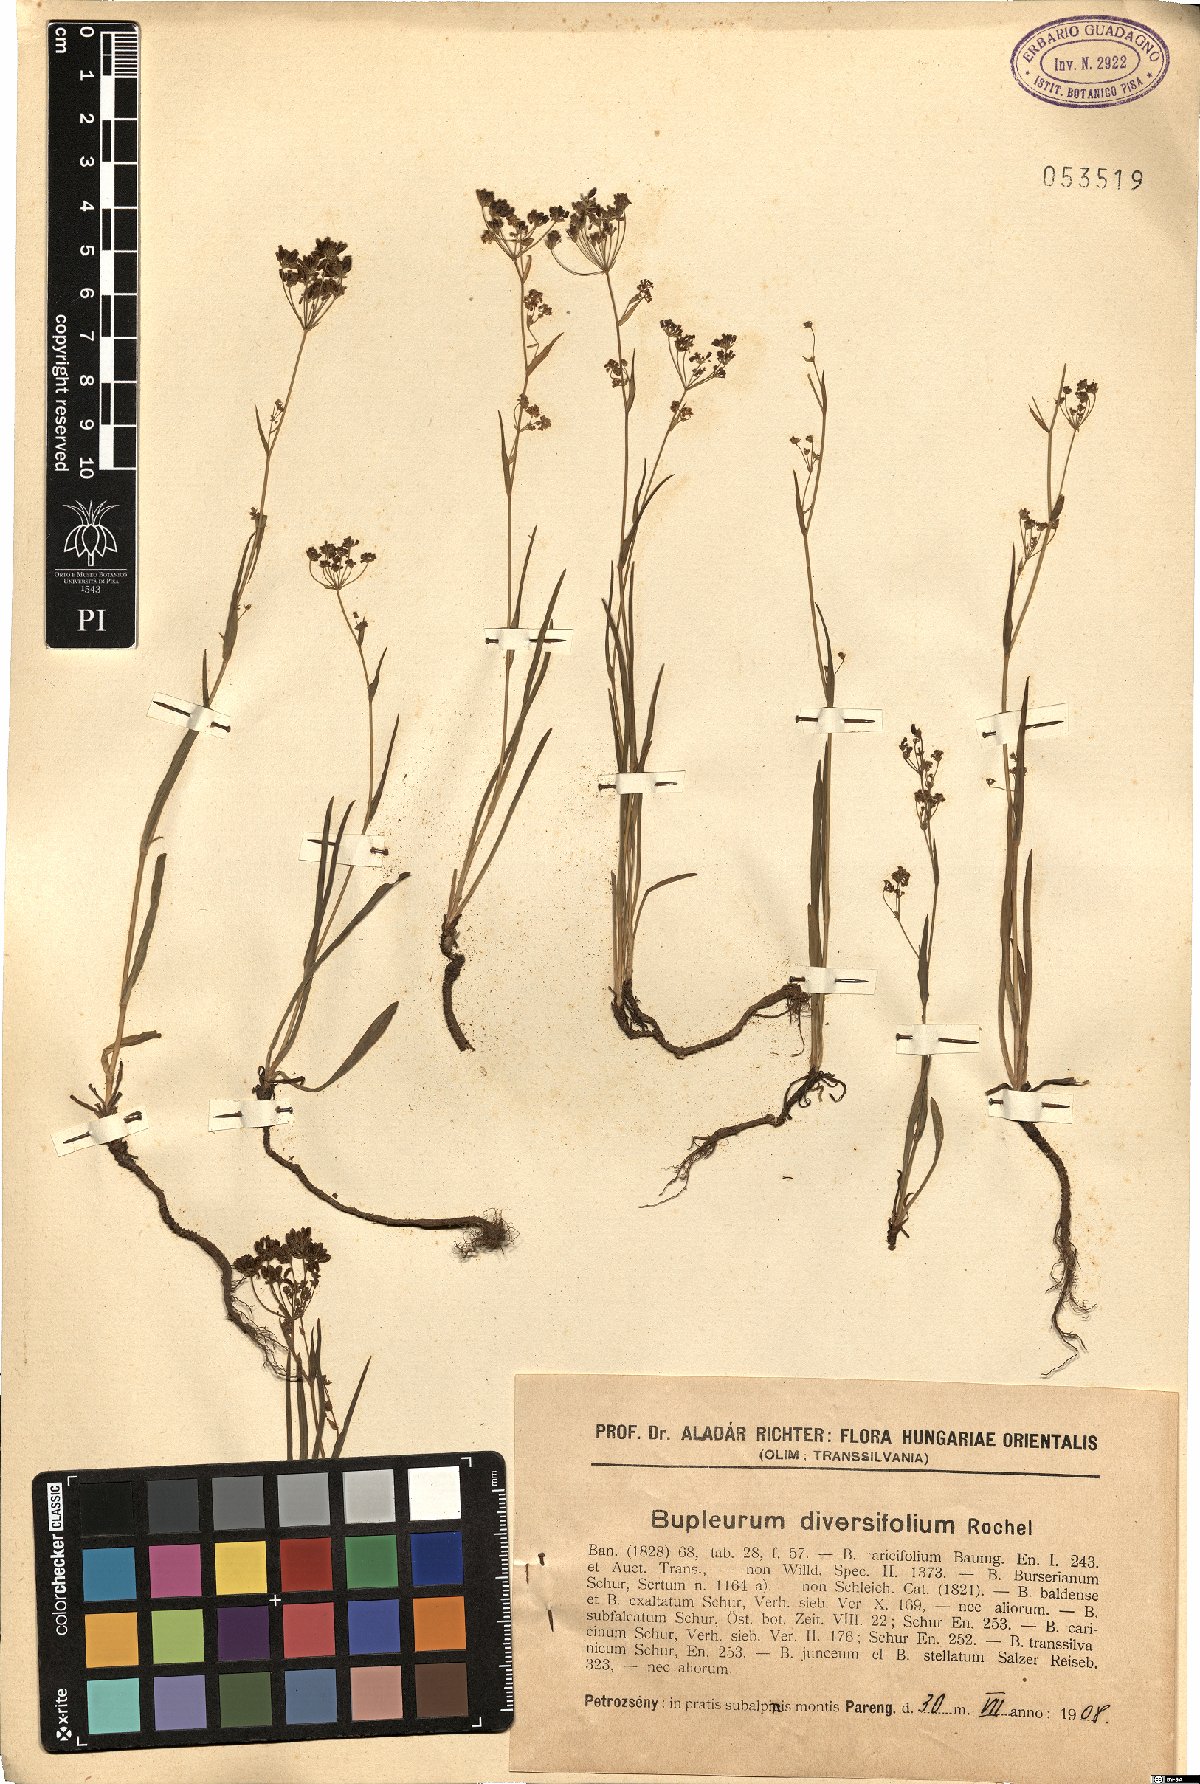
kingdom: Plantae
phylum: Tracheophyta
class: Magnoliopsida
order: Apiales
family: Apiaceae
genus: Bupleurum
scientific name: Bupleurum exaltatum
